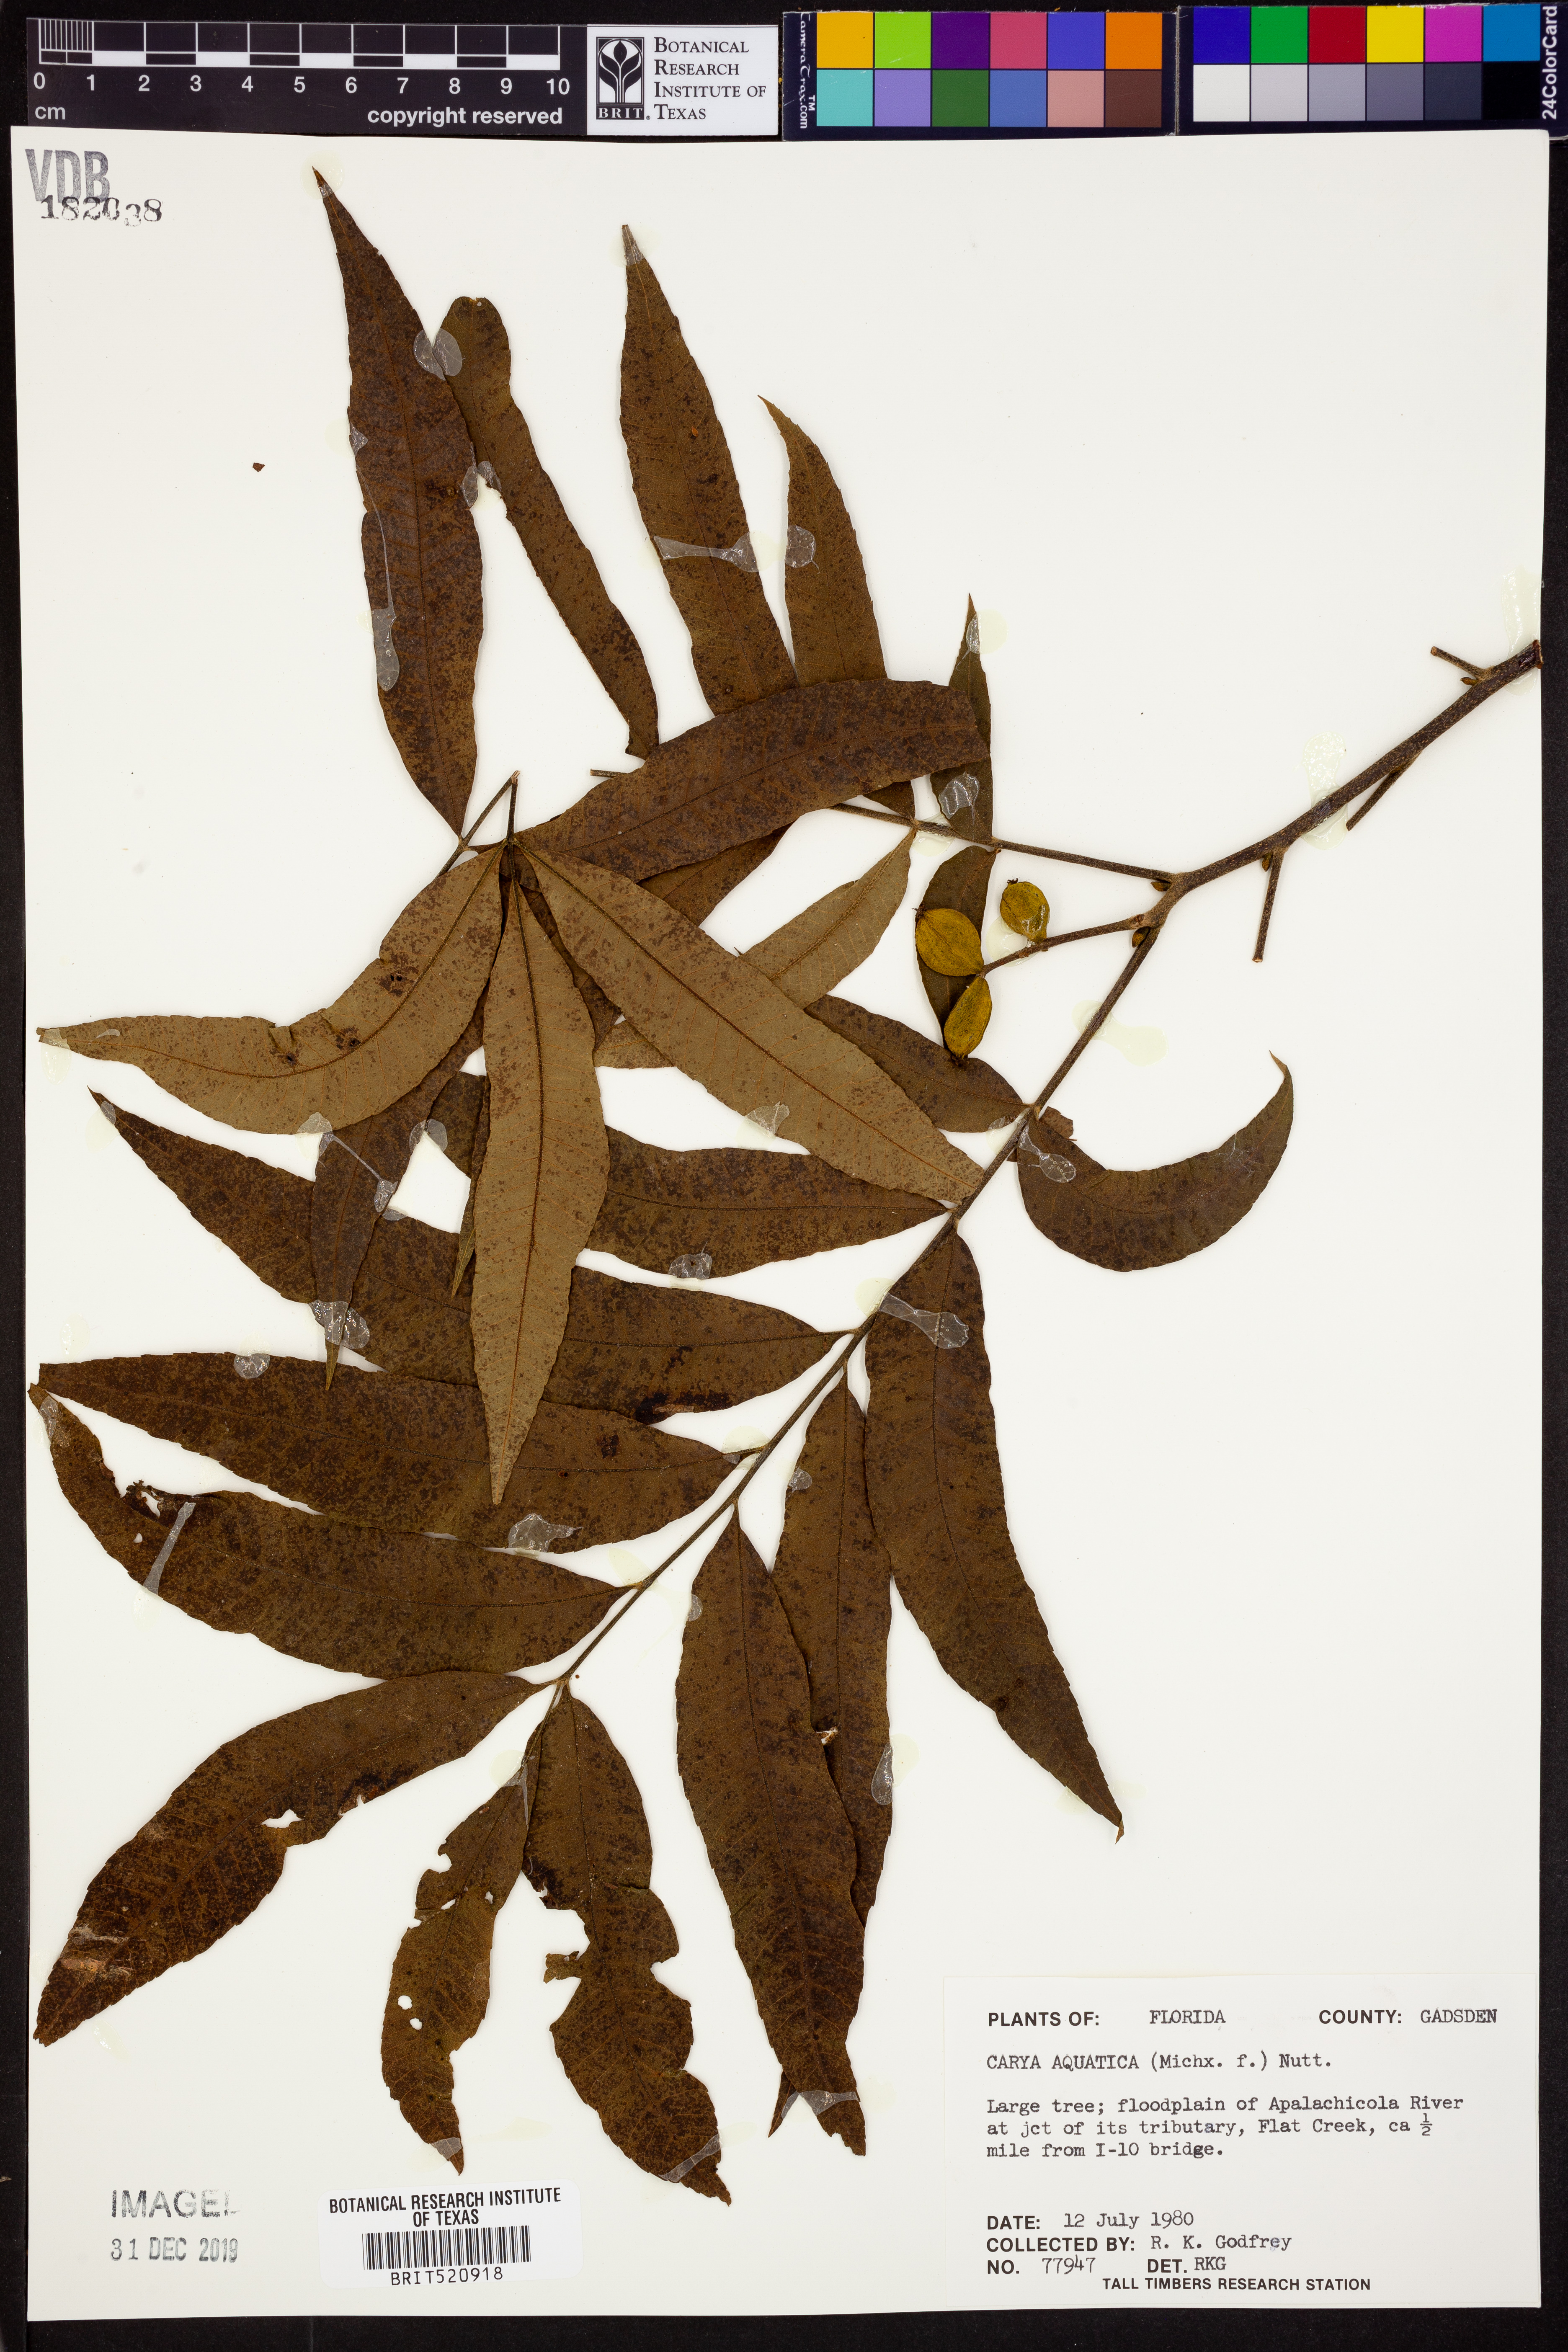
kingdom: Plantae
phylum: Tracheophyta
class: Magnoliopsida
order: Fagales
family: Juglandaceae
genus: Carya
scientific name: Carya aquatica
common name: Water hickory
